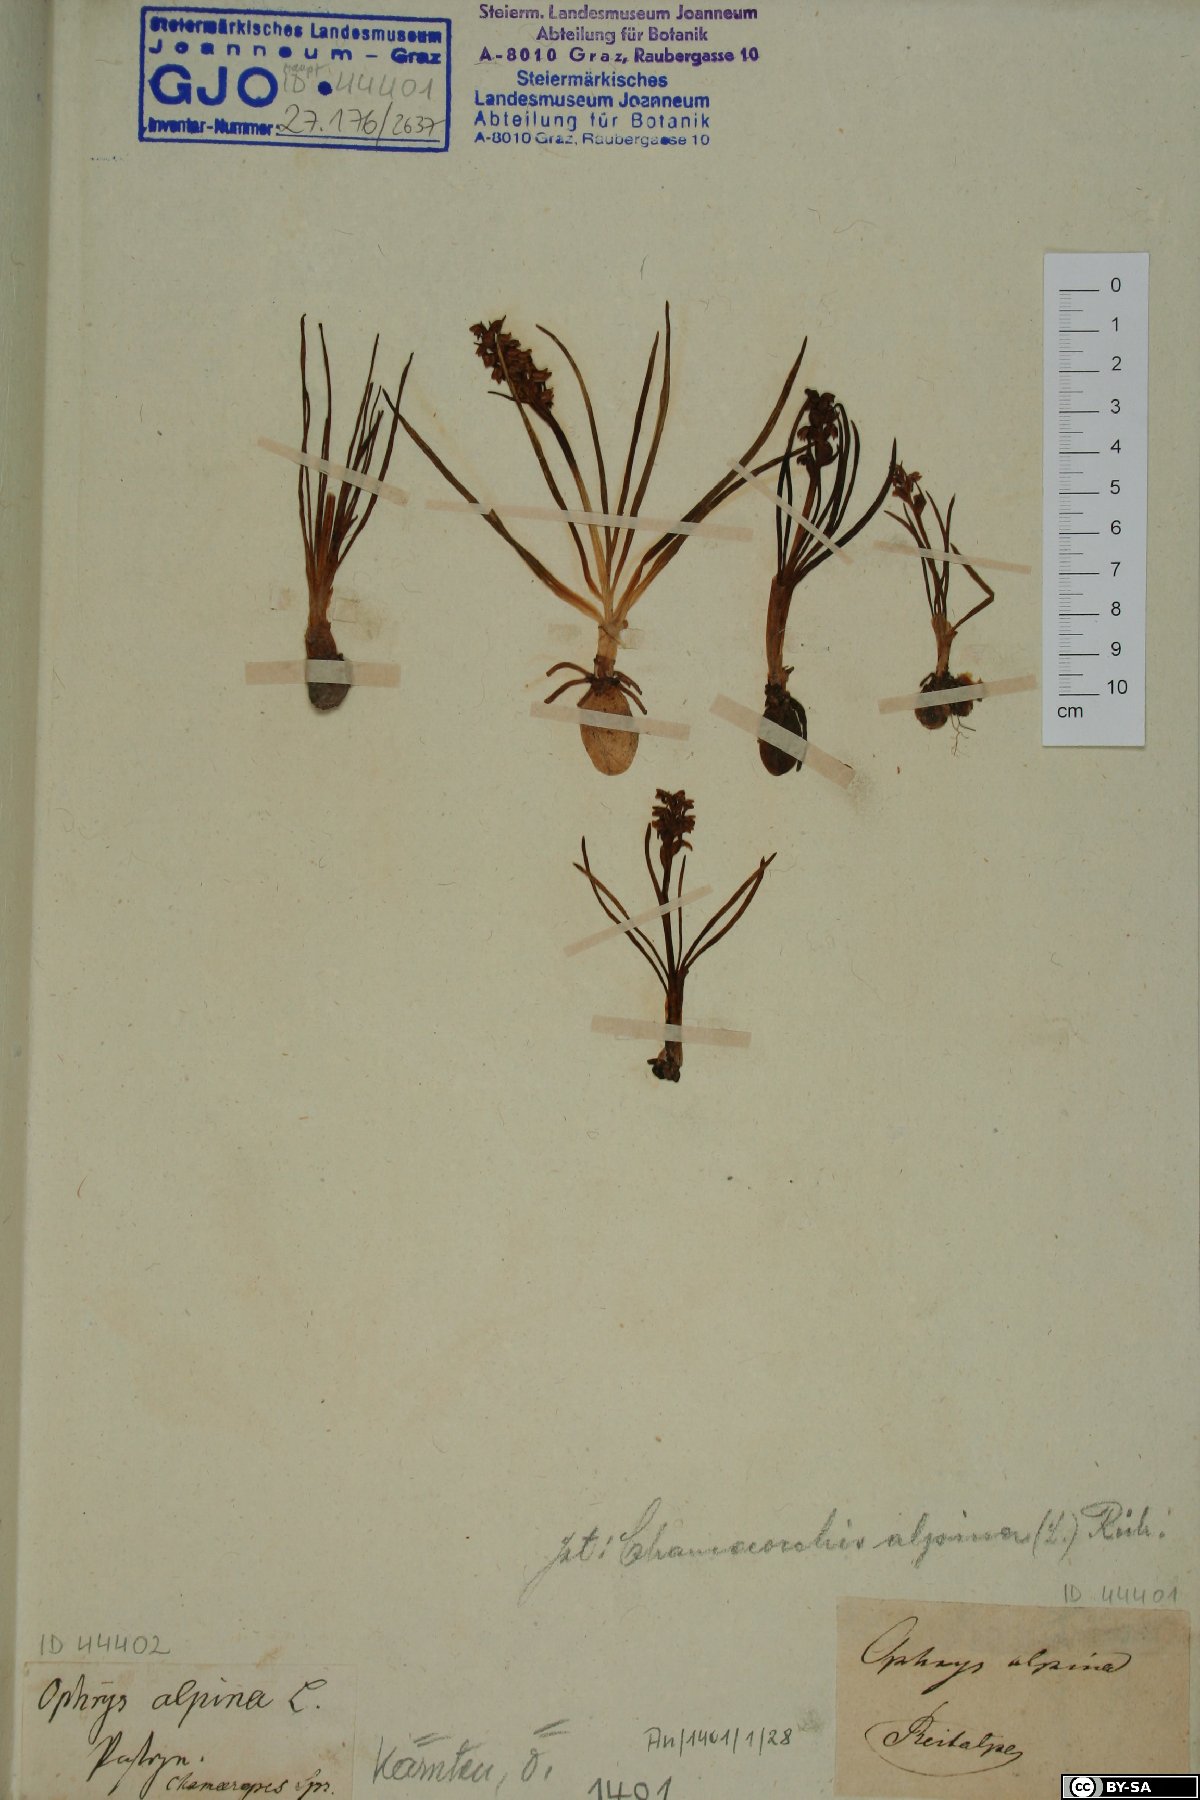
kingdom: Plantae
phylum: Tracheophyta
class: Liliopsida
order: Asparagales
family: Orchidaceae
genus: Chamorchis
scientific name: Chamorchis alpina
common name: Alpine chamorchis
